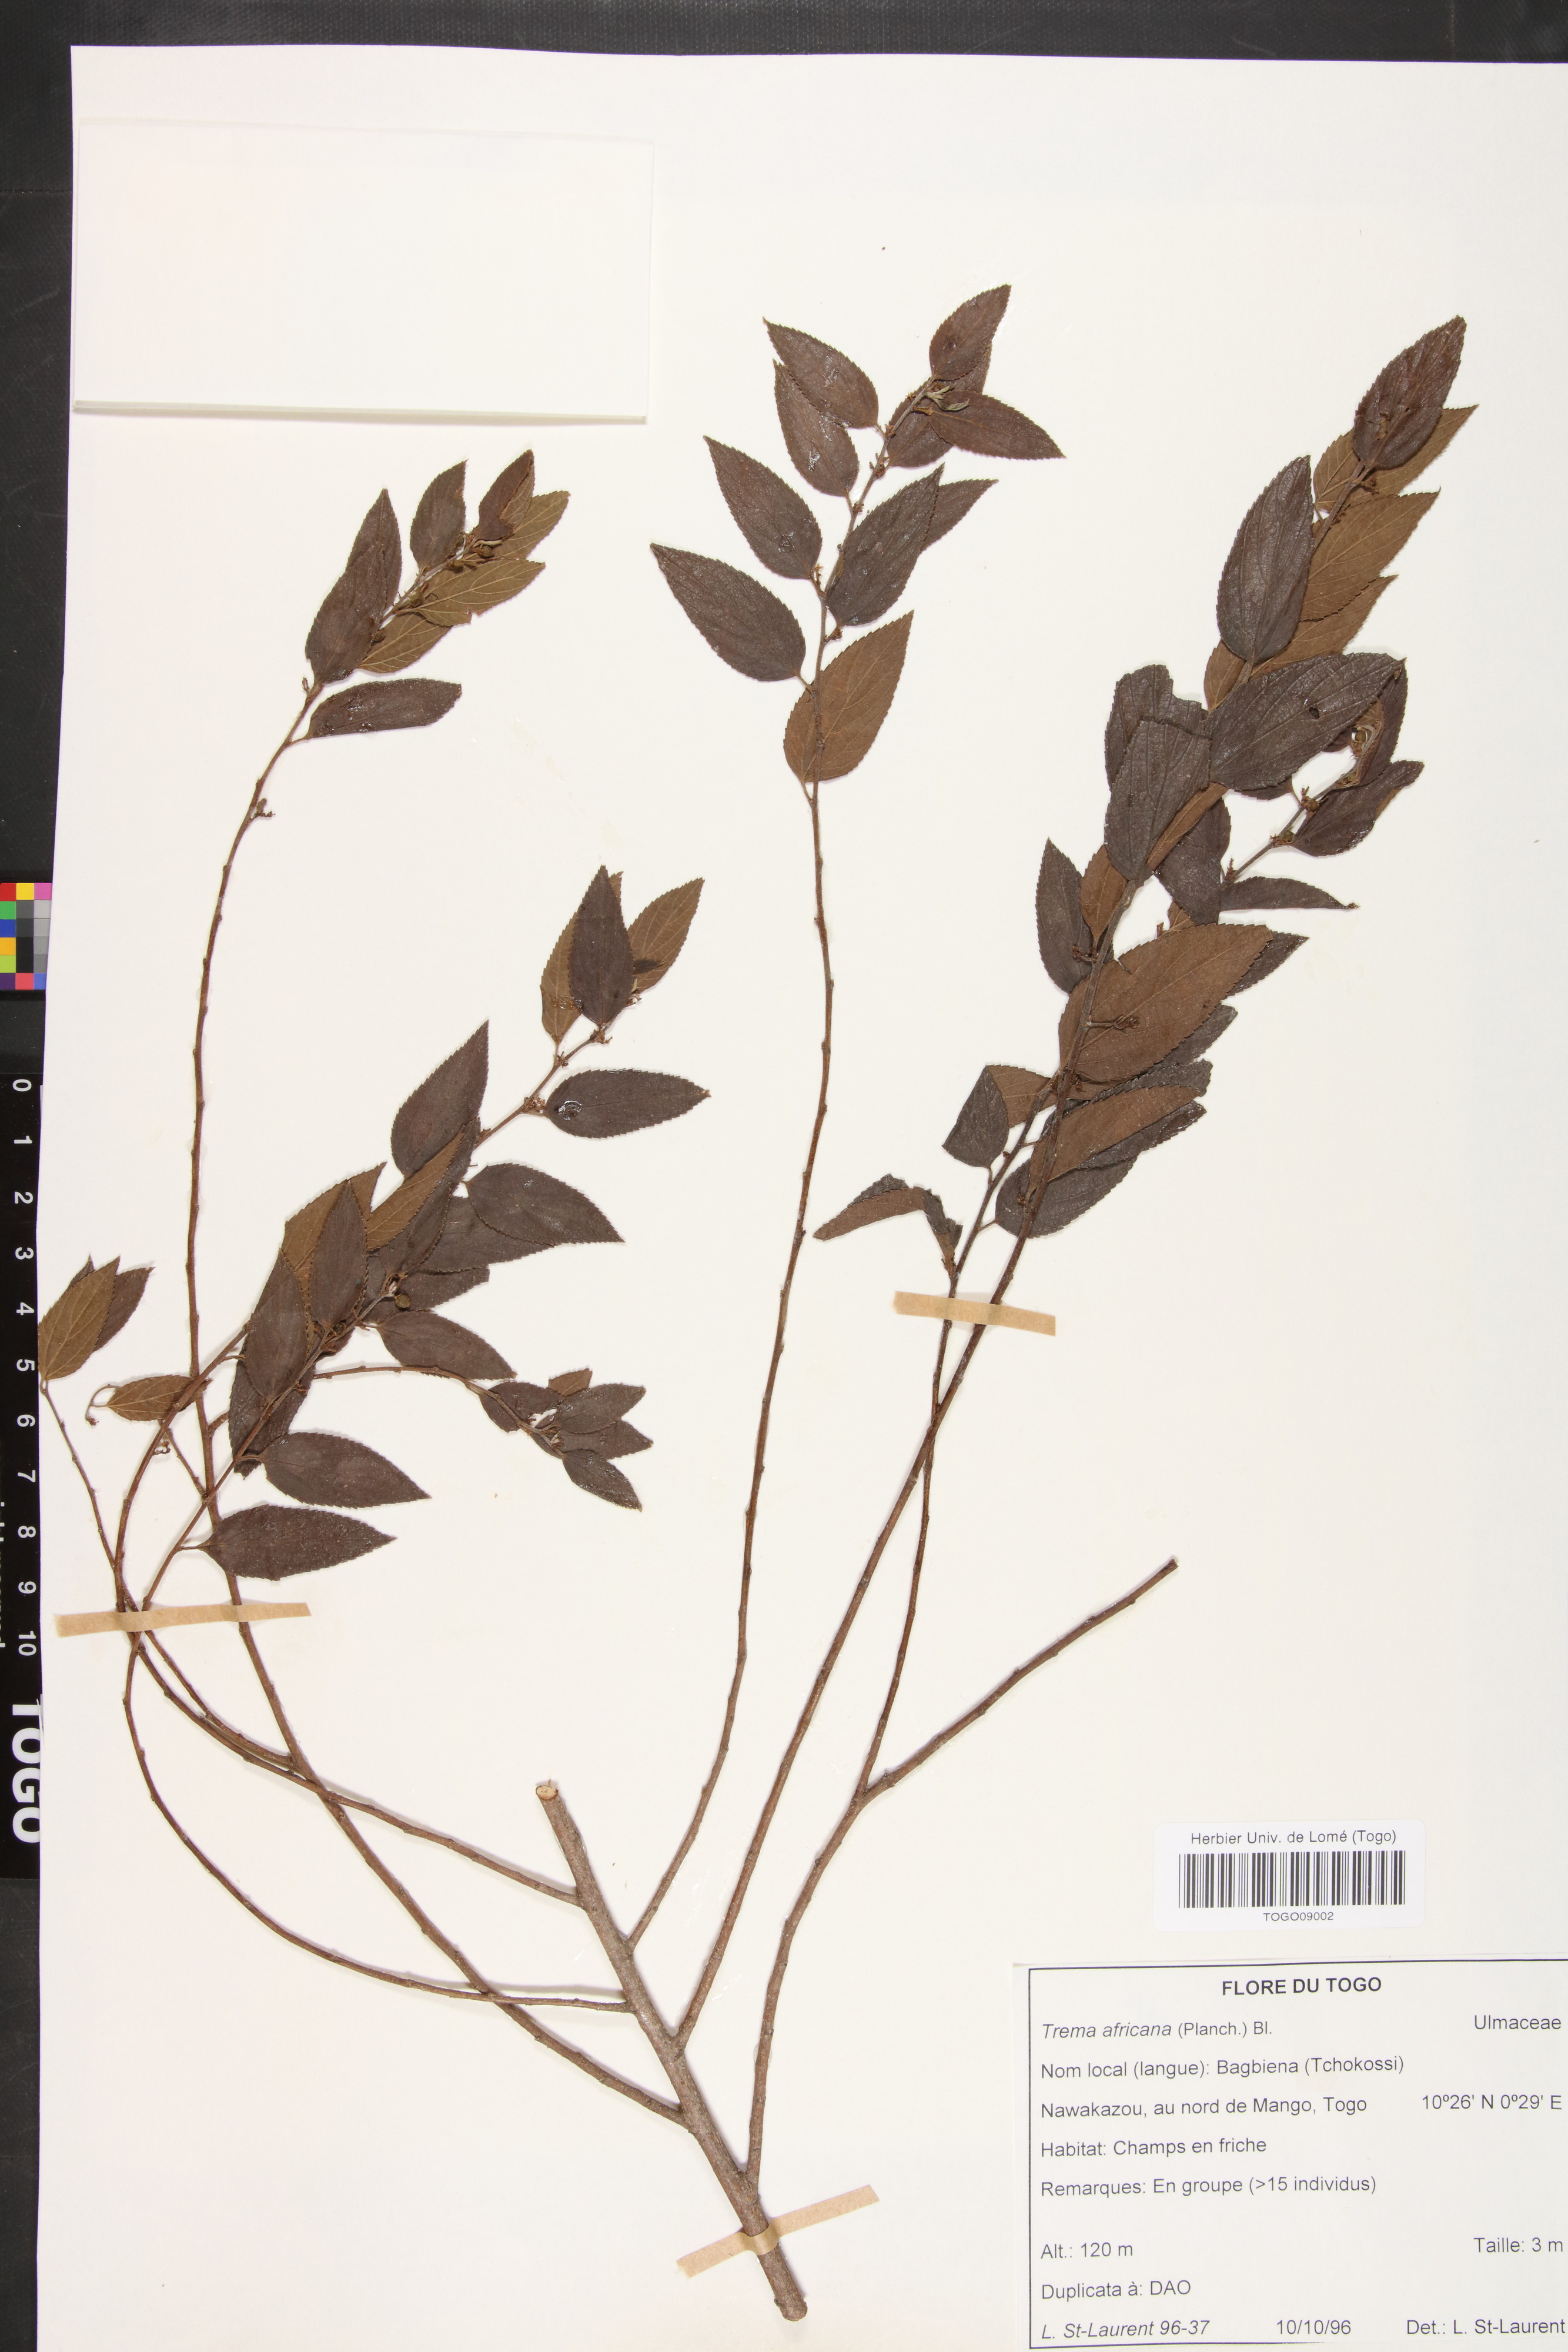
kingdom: Plantae
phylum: Tracheophyta
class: Magnoliopsida
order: Rosales
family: Cannabaceae
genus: Trema
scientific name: Trema orientale
